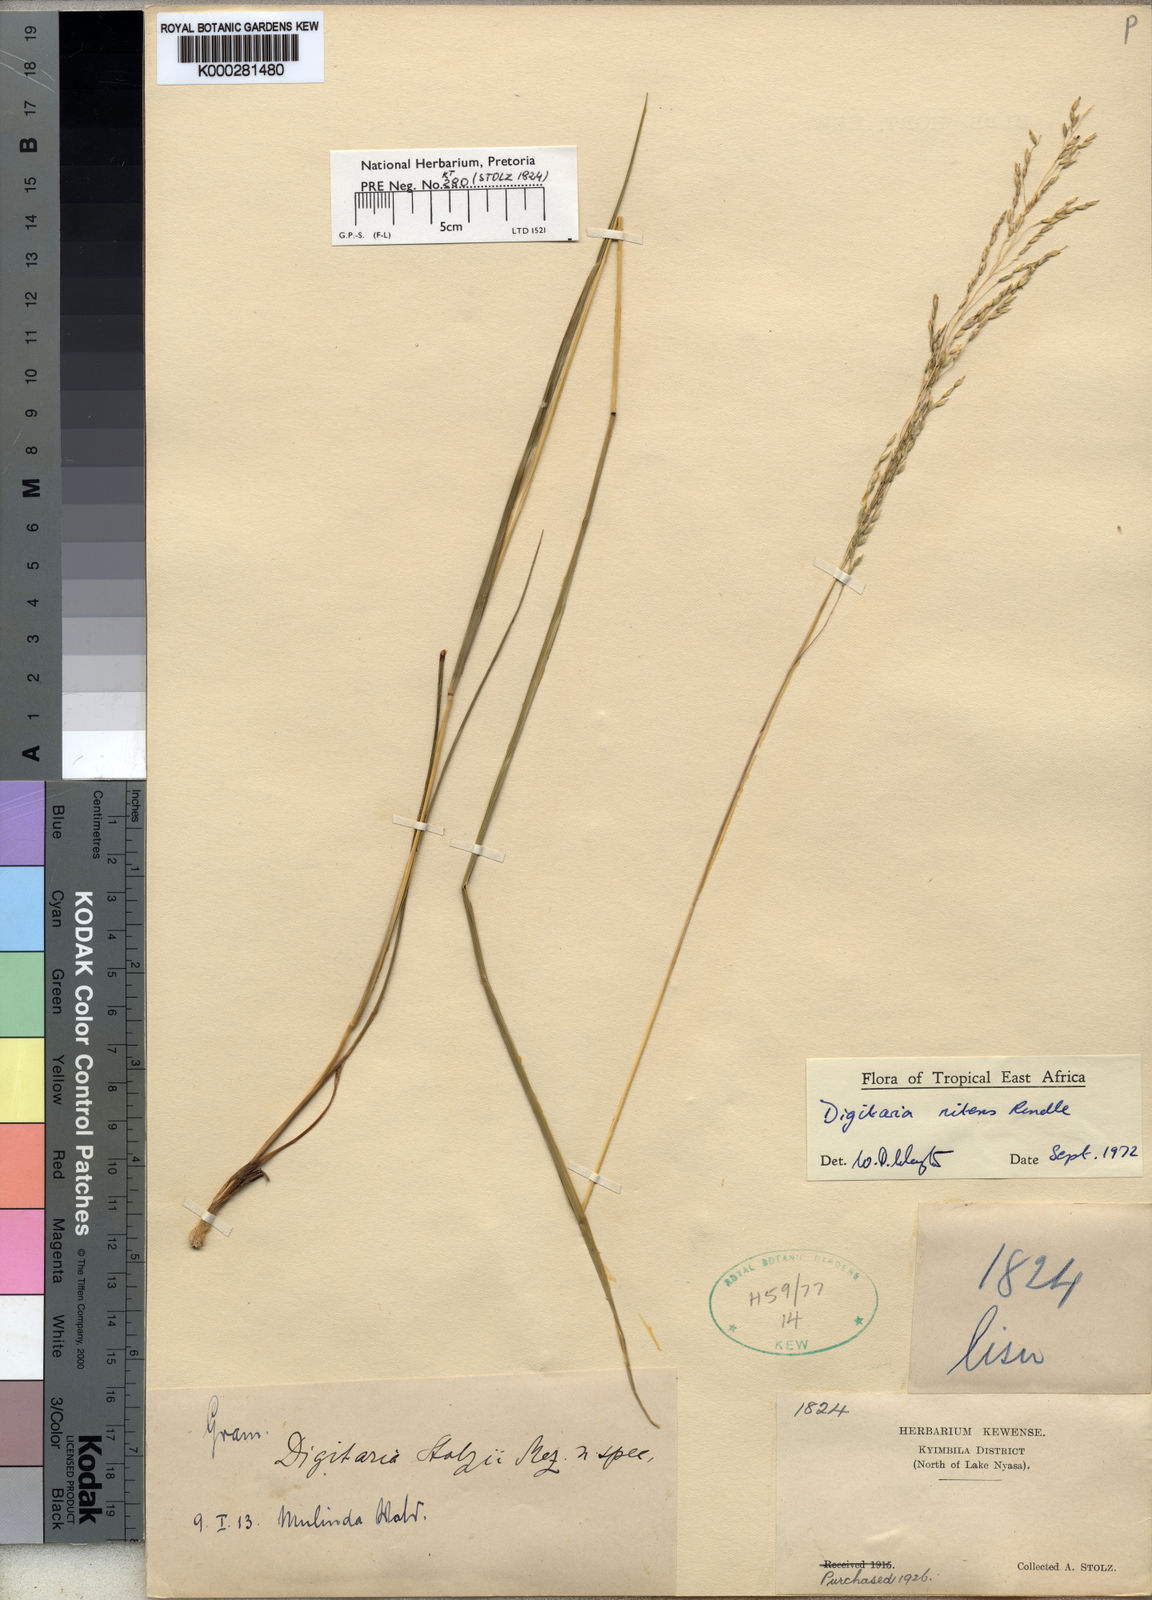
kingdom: Plantae
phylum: Tracheophyta
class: Liliopsida
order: Poales
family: Poaceae
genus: Digitaria
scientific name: Digitaria flaccida
